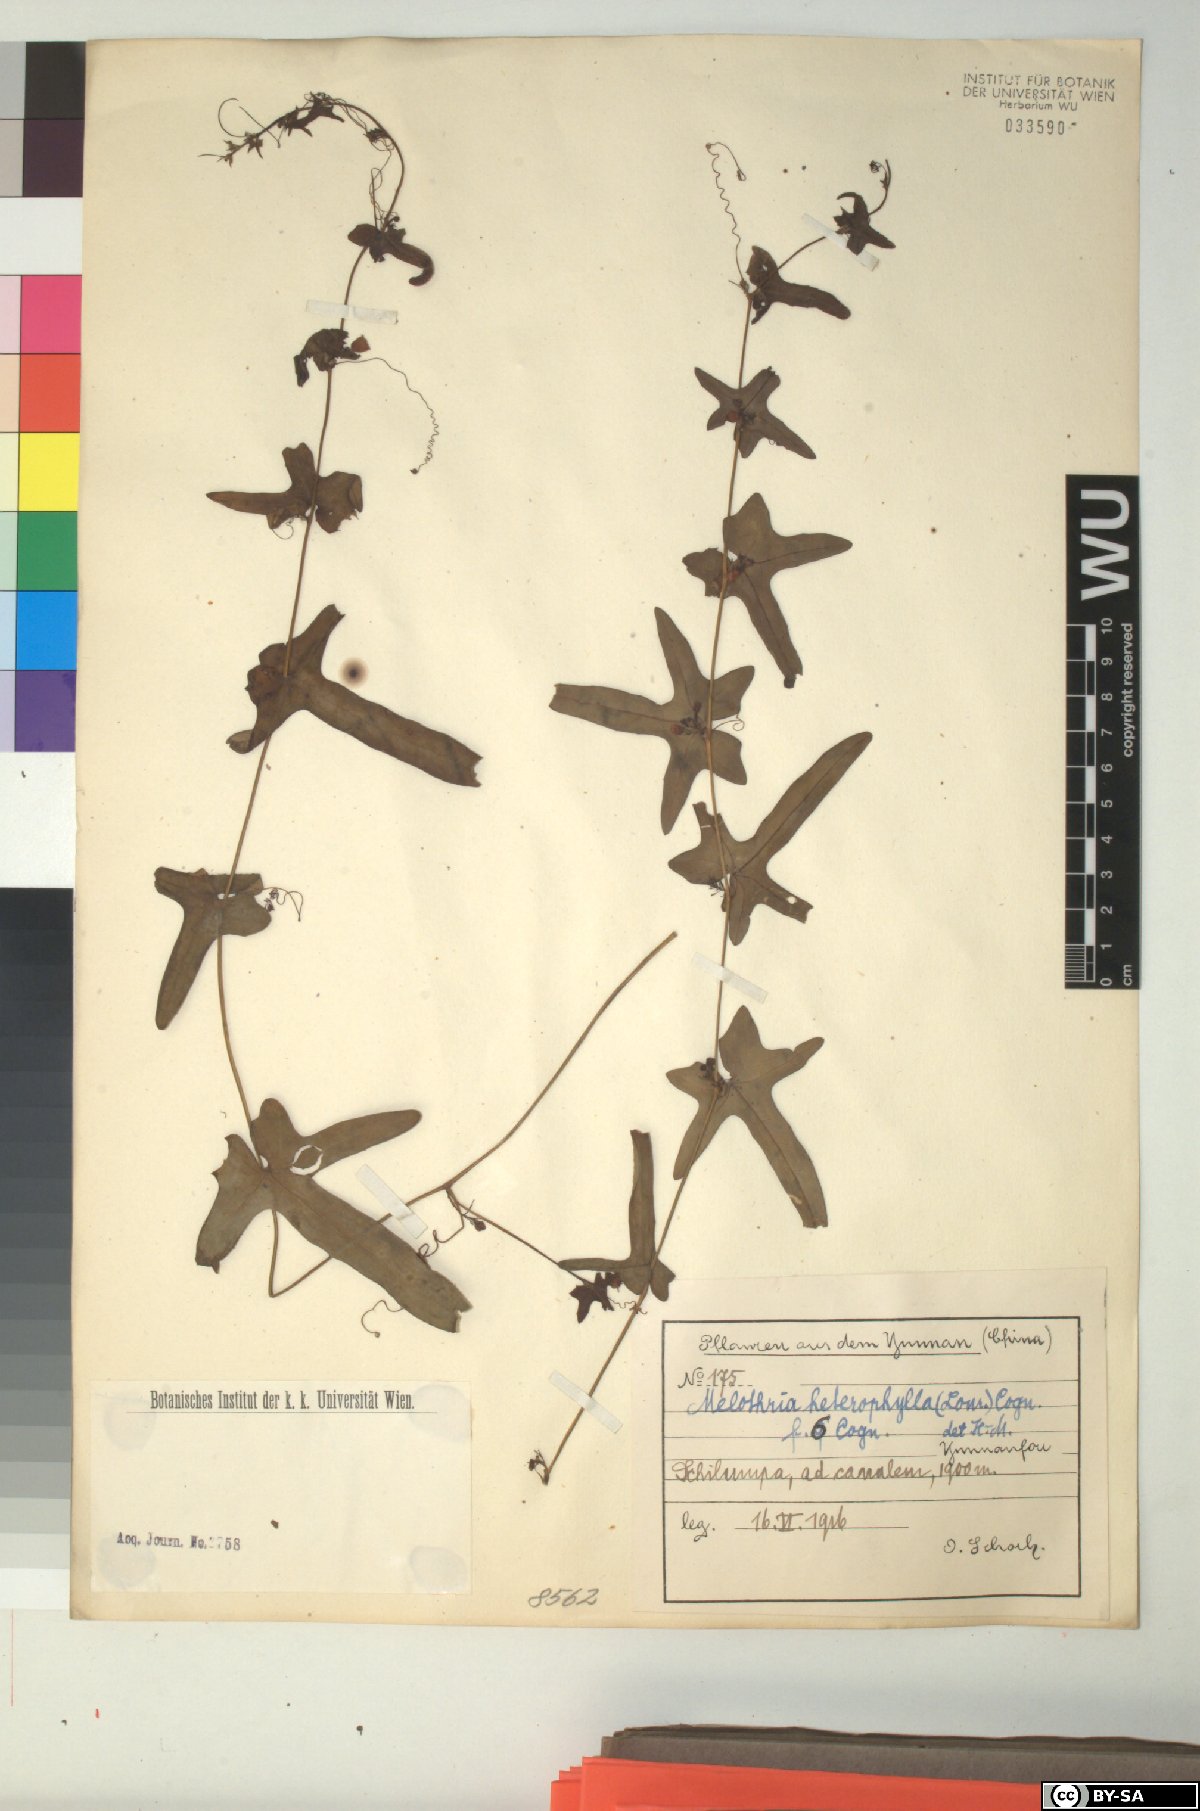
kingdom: Plantae
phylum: Tracheophyta
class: Magnoliopsida
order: Cucurbitales
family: Cucurbitaceae
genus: Melothria
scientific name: Melothria trilobata
